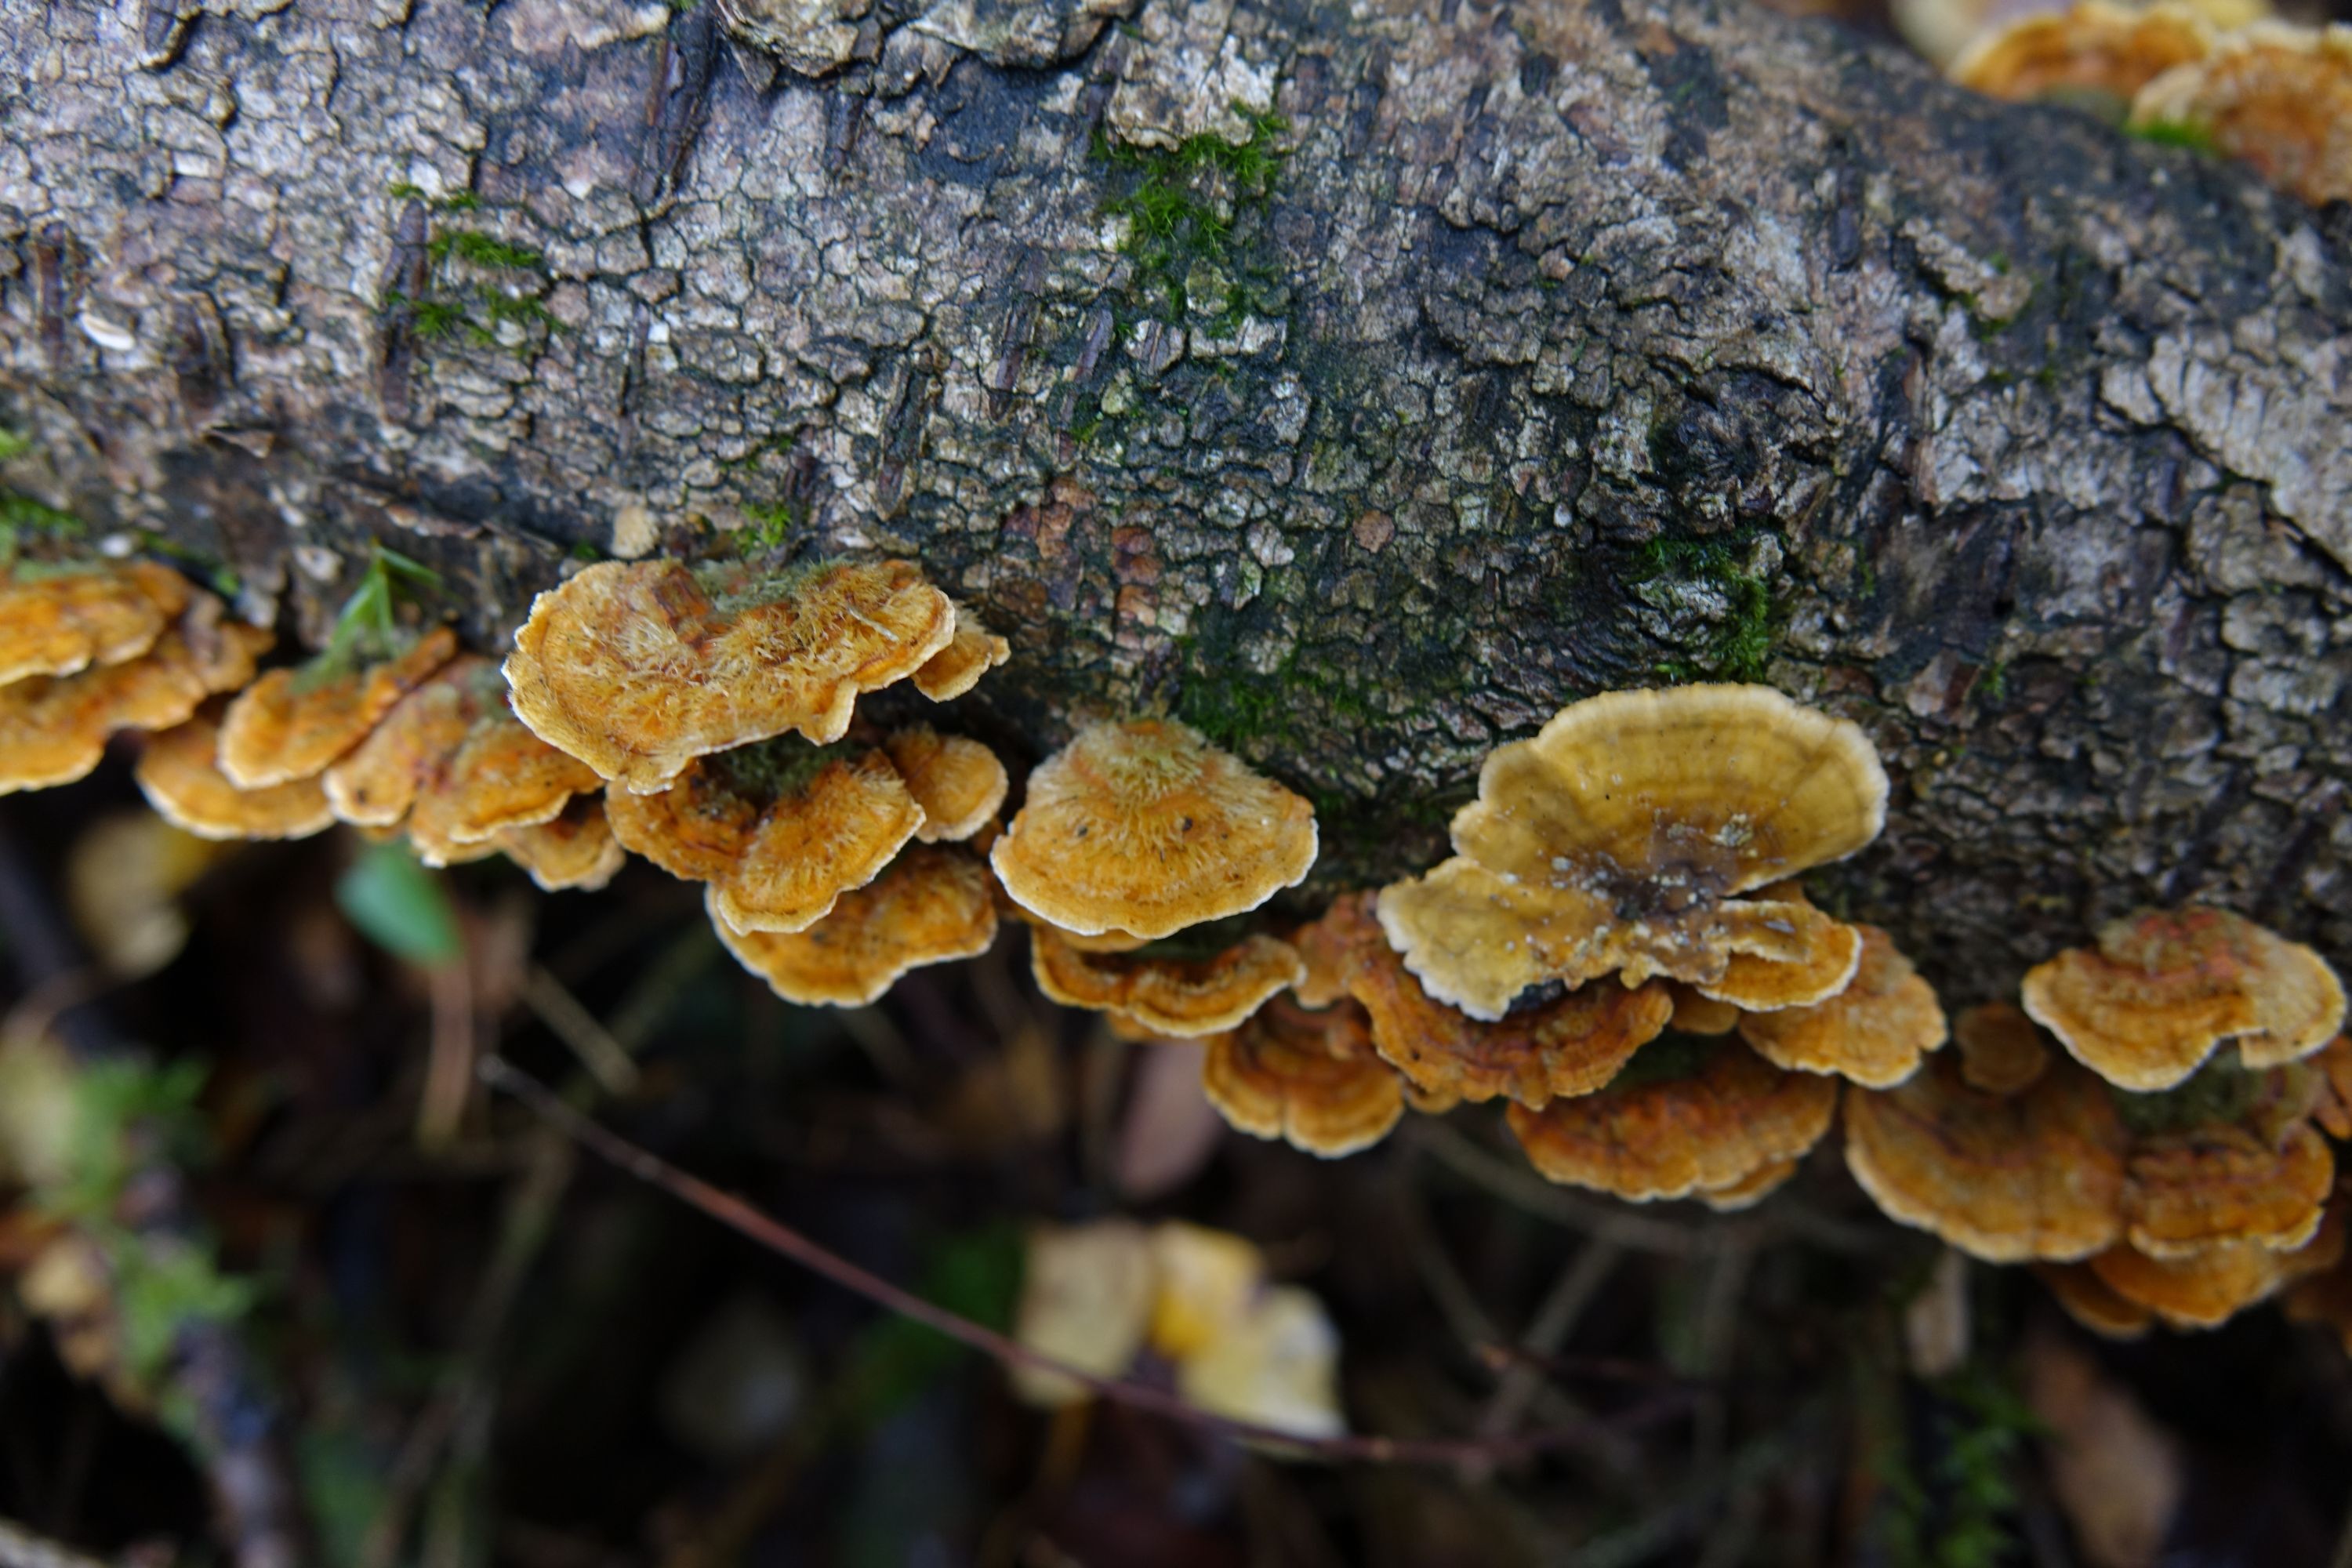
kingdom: Fungi
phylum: Basidiomycota
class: Agaricomycetes
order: Russulales
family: Stereaceae
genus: Stereum
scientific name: Stereum hirsutum
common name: Hairy curtain crust
